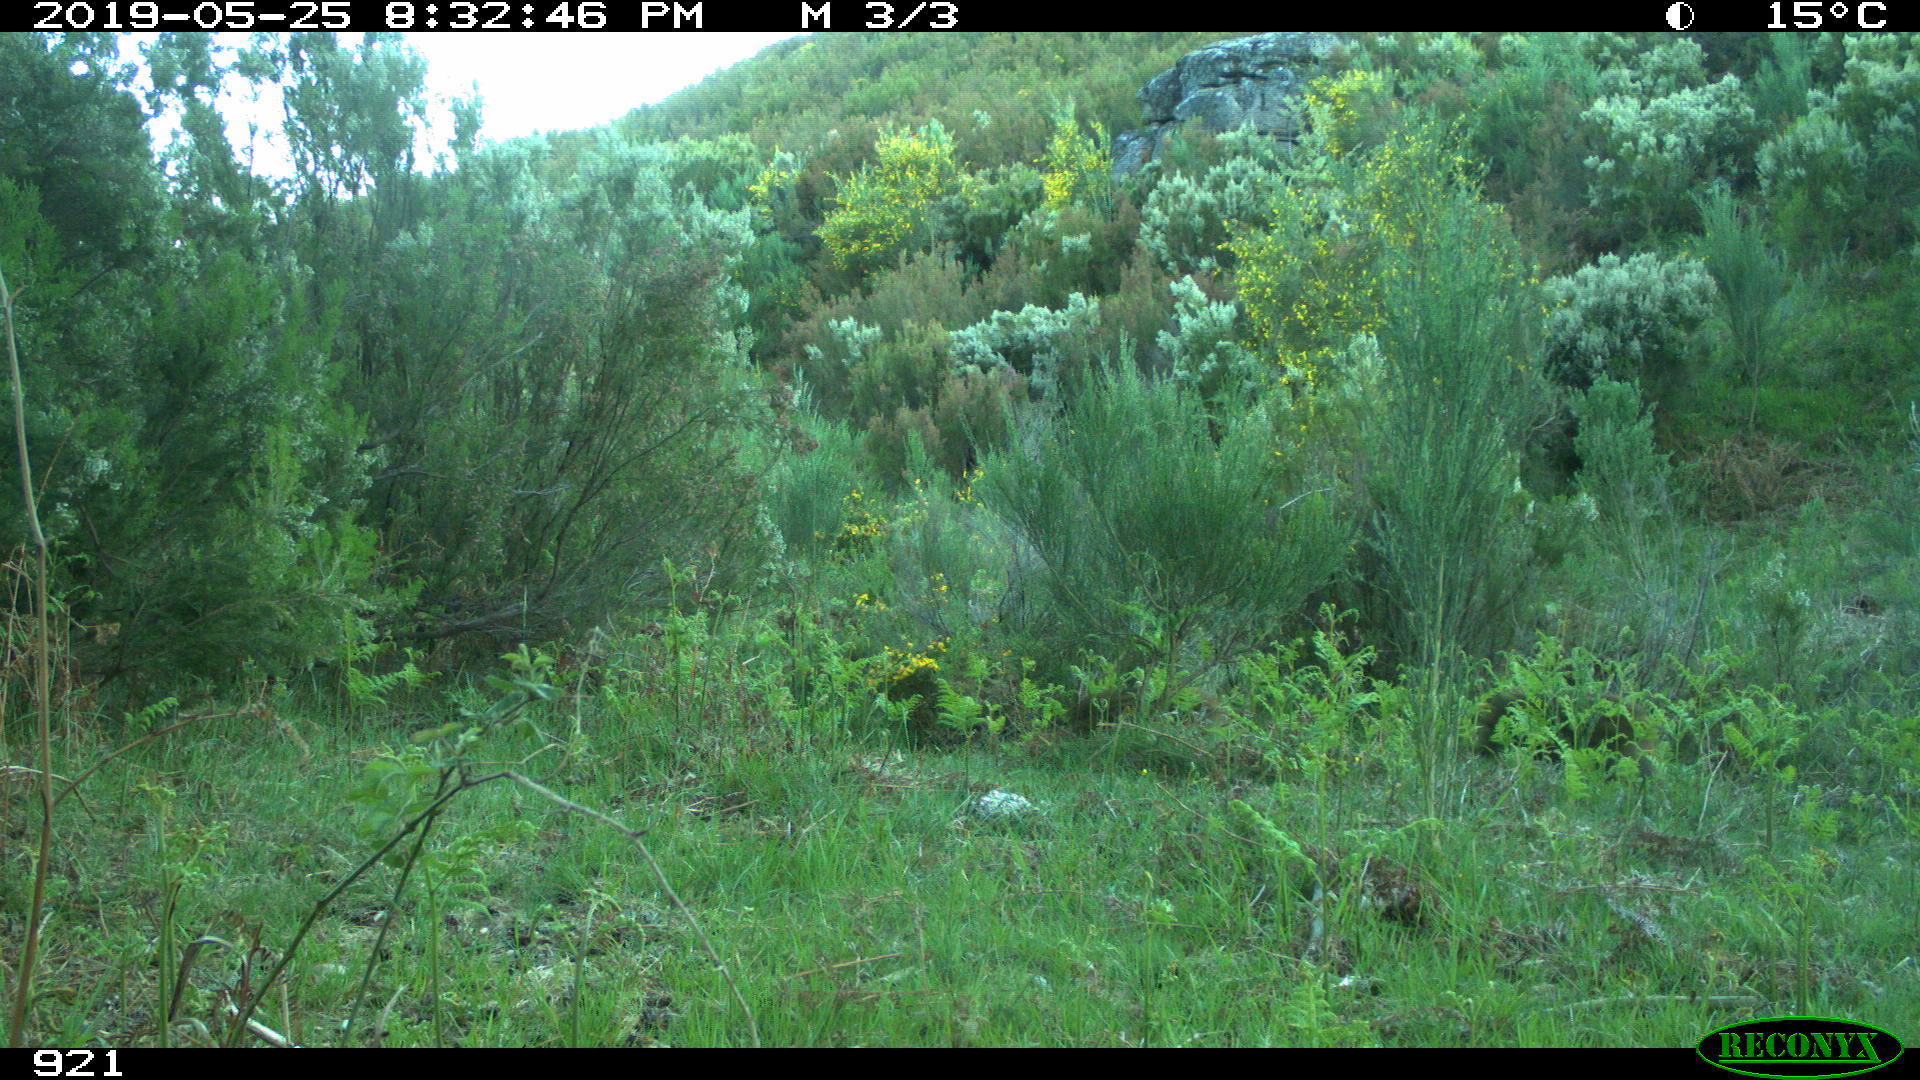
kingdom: Animalia
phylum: Chordata
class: Mammalia
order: Artiodactyla
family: Suidae
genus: Sus
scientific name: Sus scrofa
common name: Wild boar
